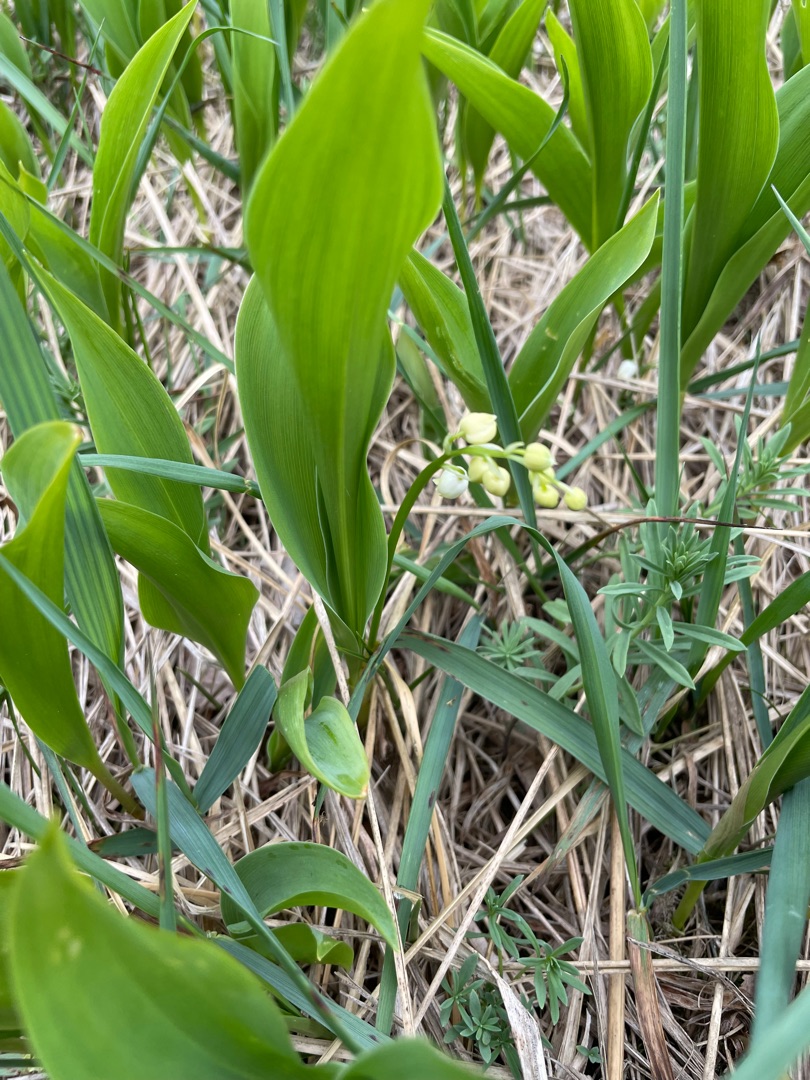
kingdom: Plantae
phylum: Tracheophyta
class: Liliopsida
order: Asparagales
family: Asparagaceae
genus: Convallaria
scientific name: Convallaria majalis
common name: Liljekonval
